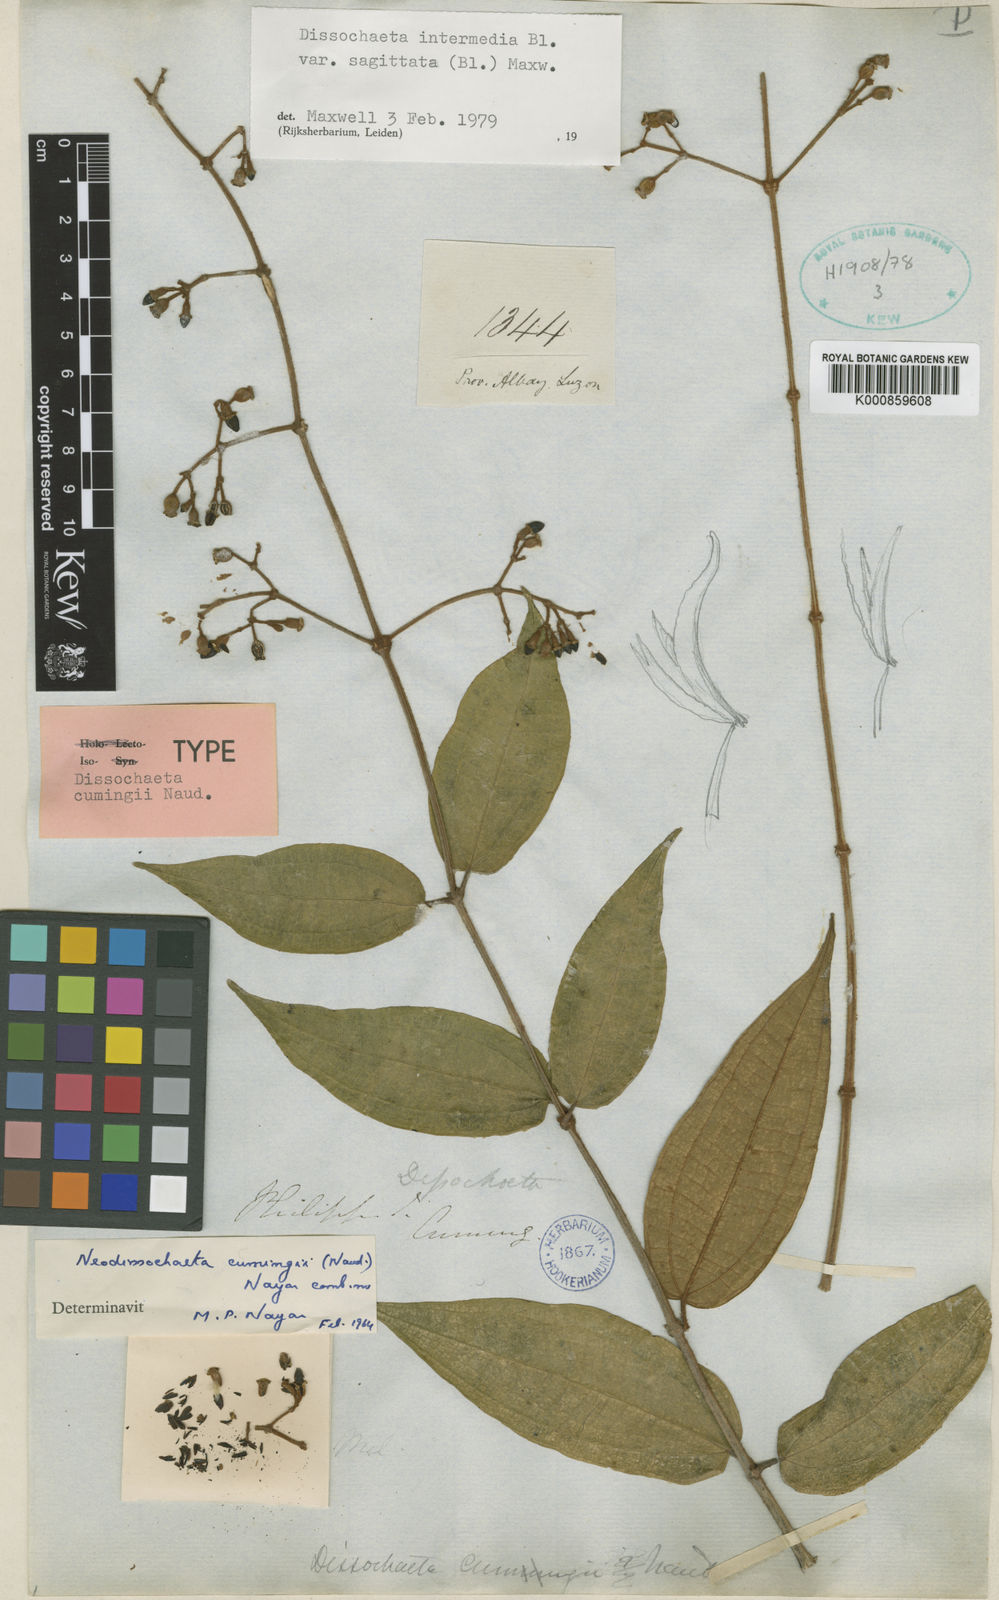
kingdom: Plantae
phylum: Tracheophyta
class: Magnoliopsida
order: Myrtales
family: Melastomataceae
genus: Dissochaeta
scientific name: Dissochaeta sagittata
